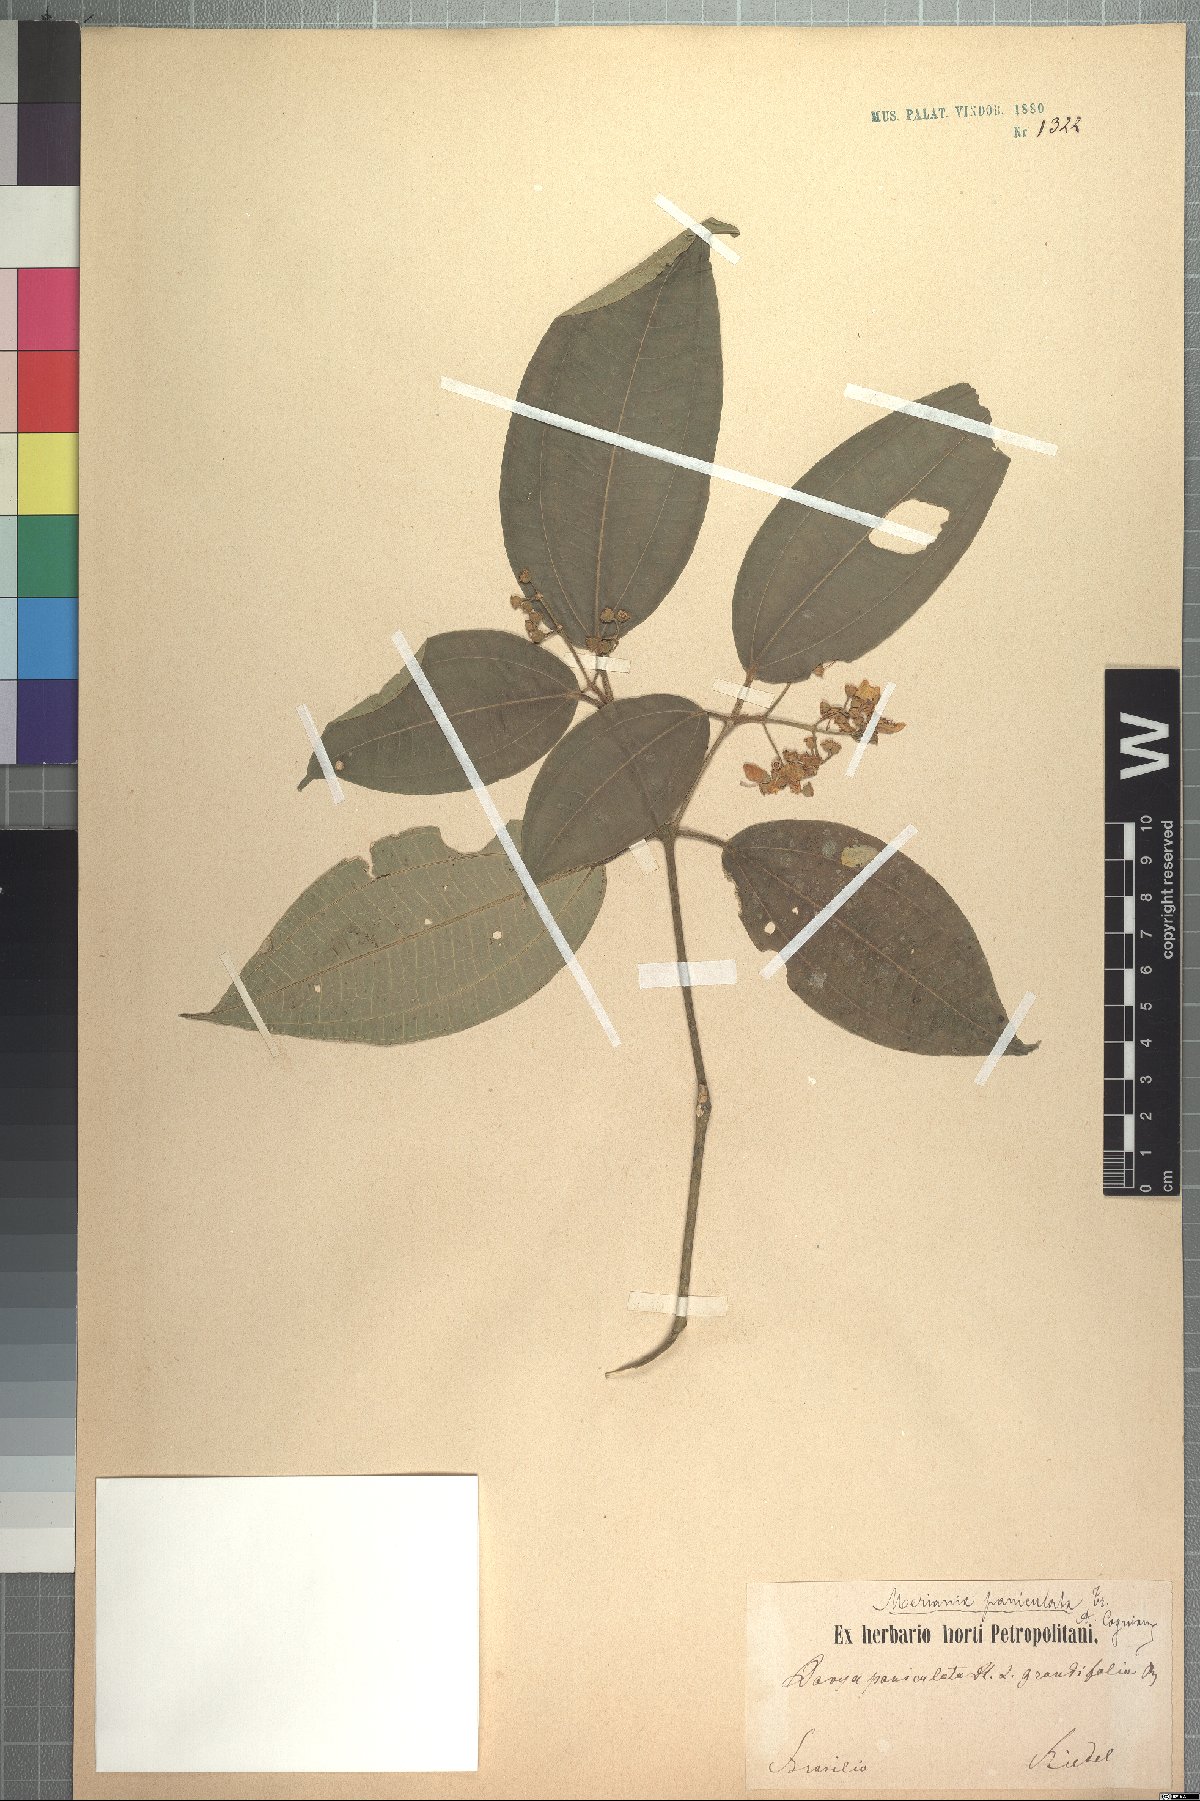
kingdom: Plantae
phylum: Tracheophyta
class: Magnoliopsida
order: Myrtales
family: Melastomataceae
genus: Meriania
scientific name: Meriania paniculata
